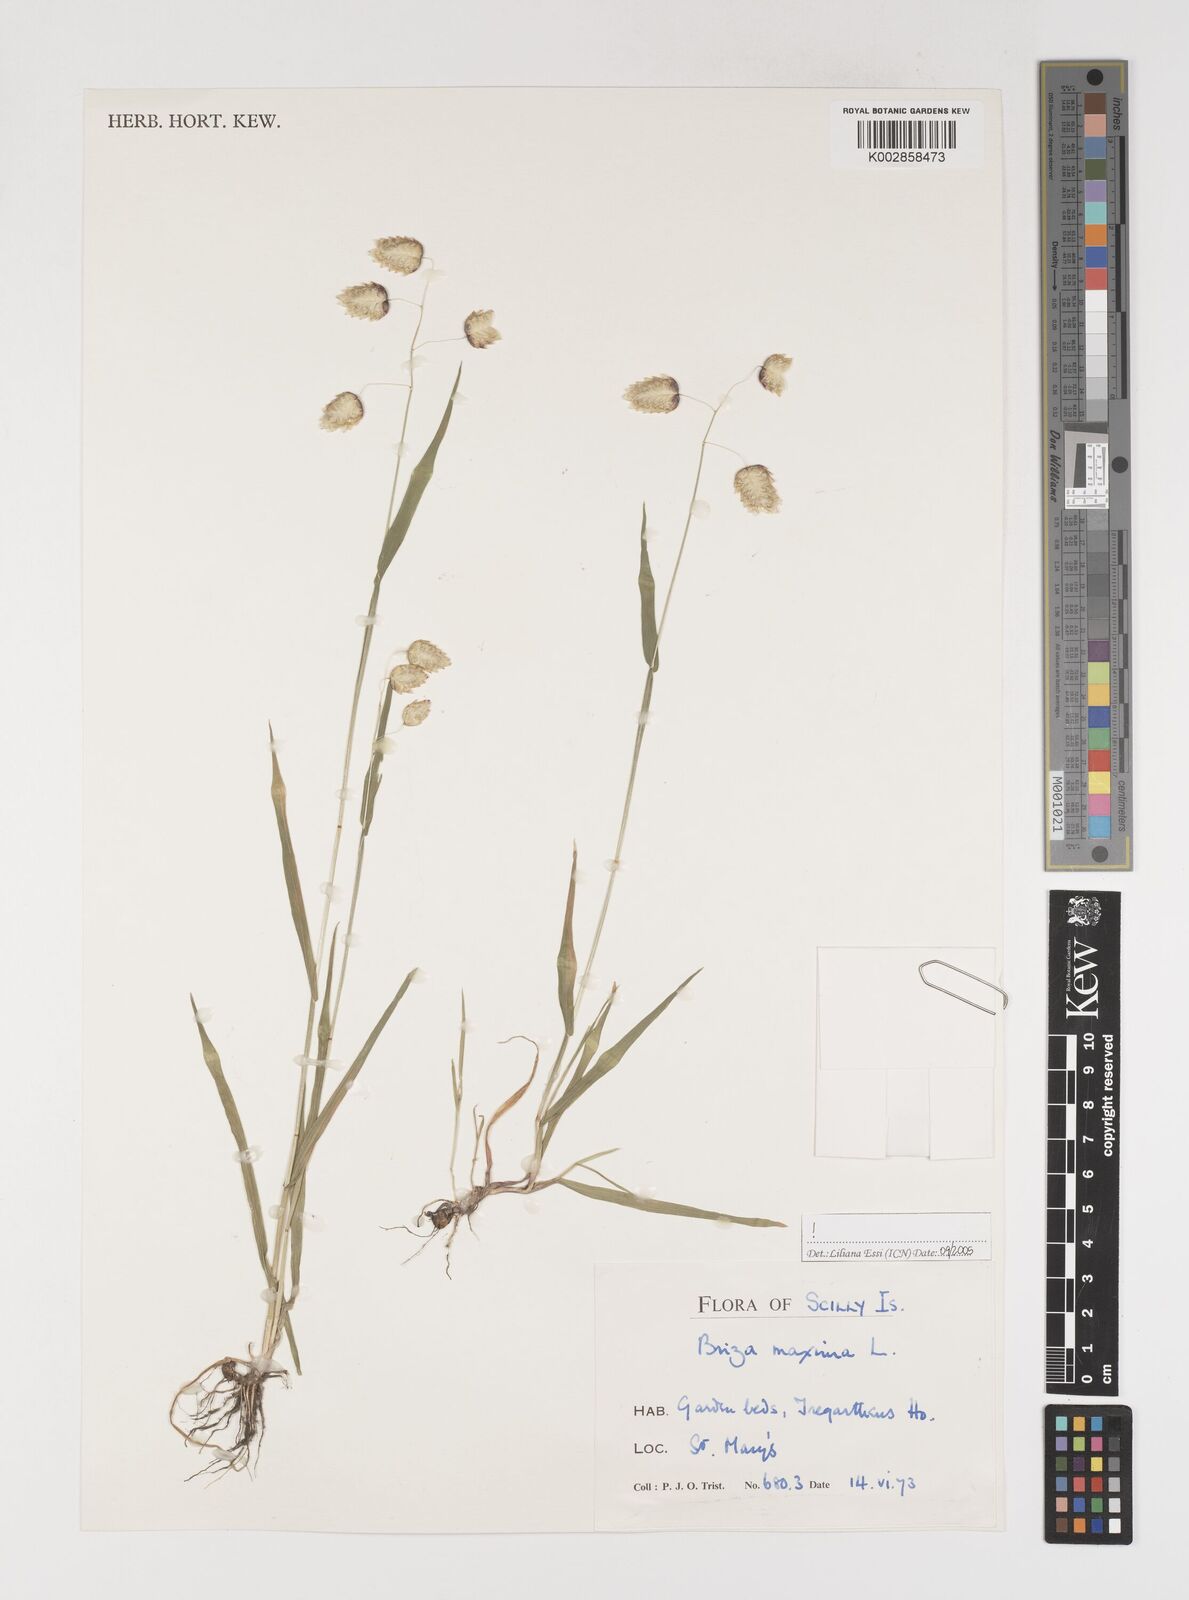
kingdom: Plantae
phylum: Tracheophyta
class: Liliopsida
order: Poales
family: Poaceae
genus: Briza
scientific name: Briza maxima
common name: Big quakinggrass
